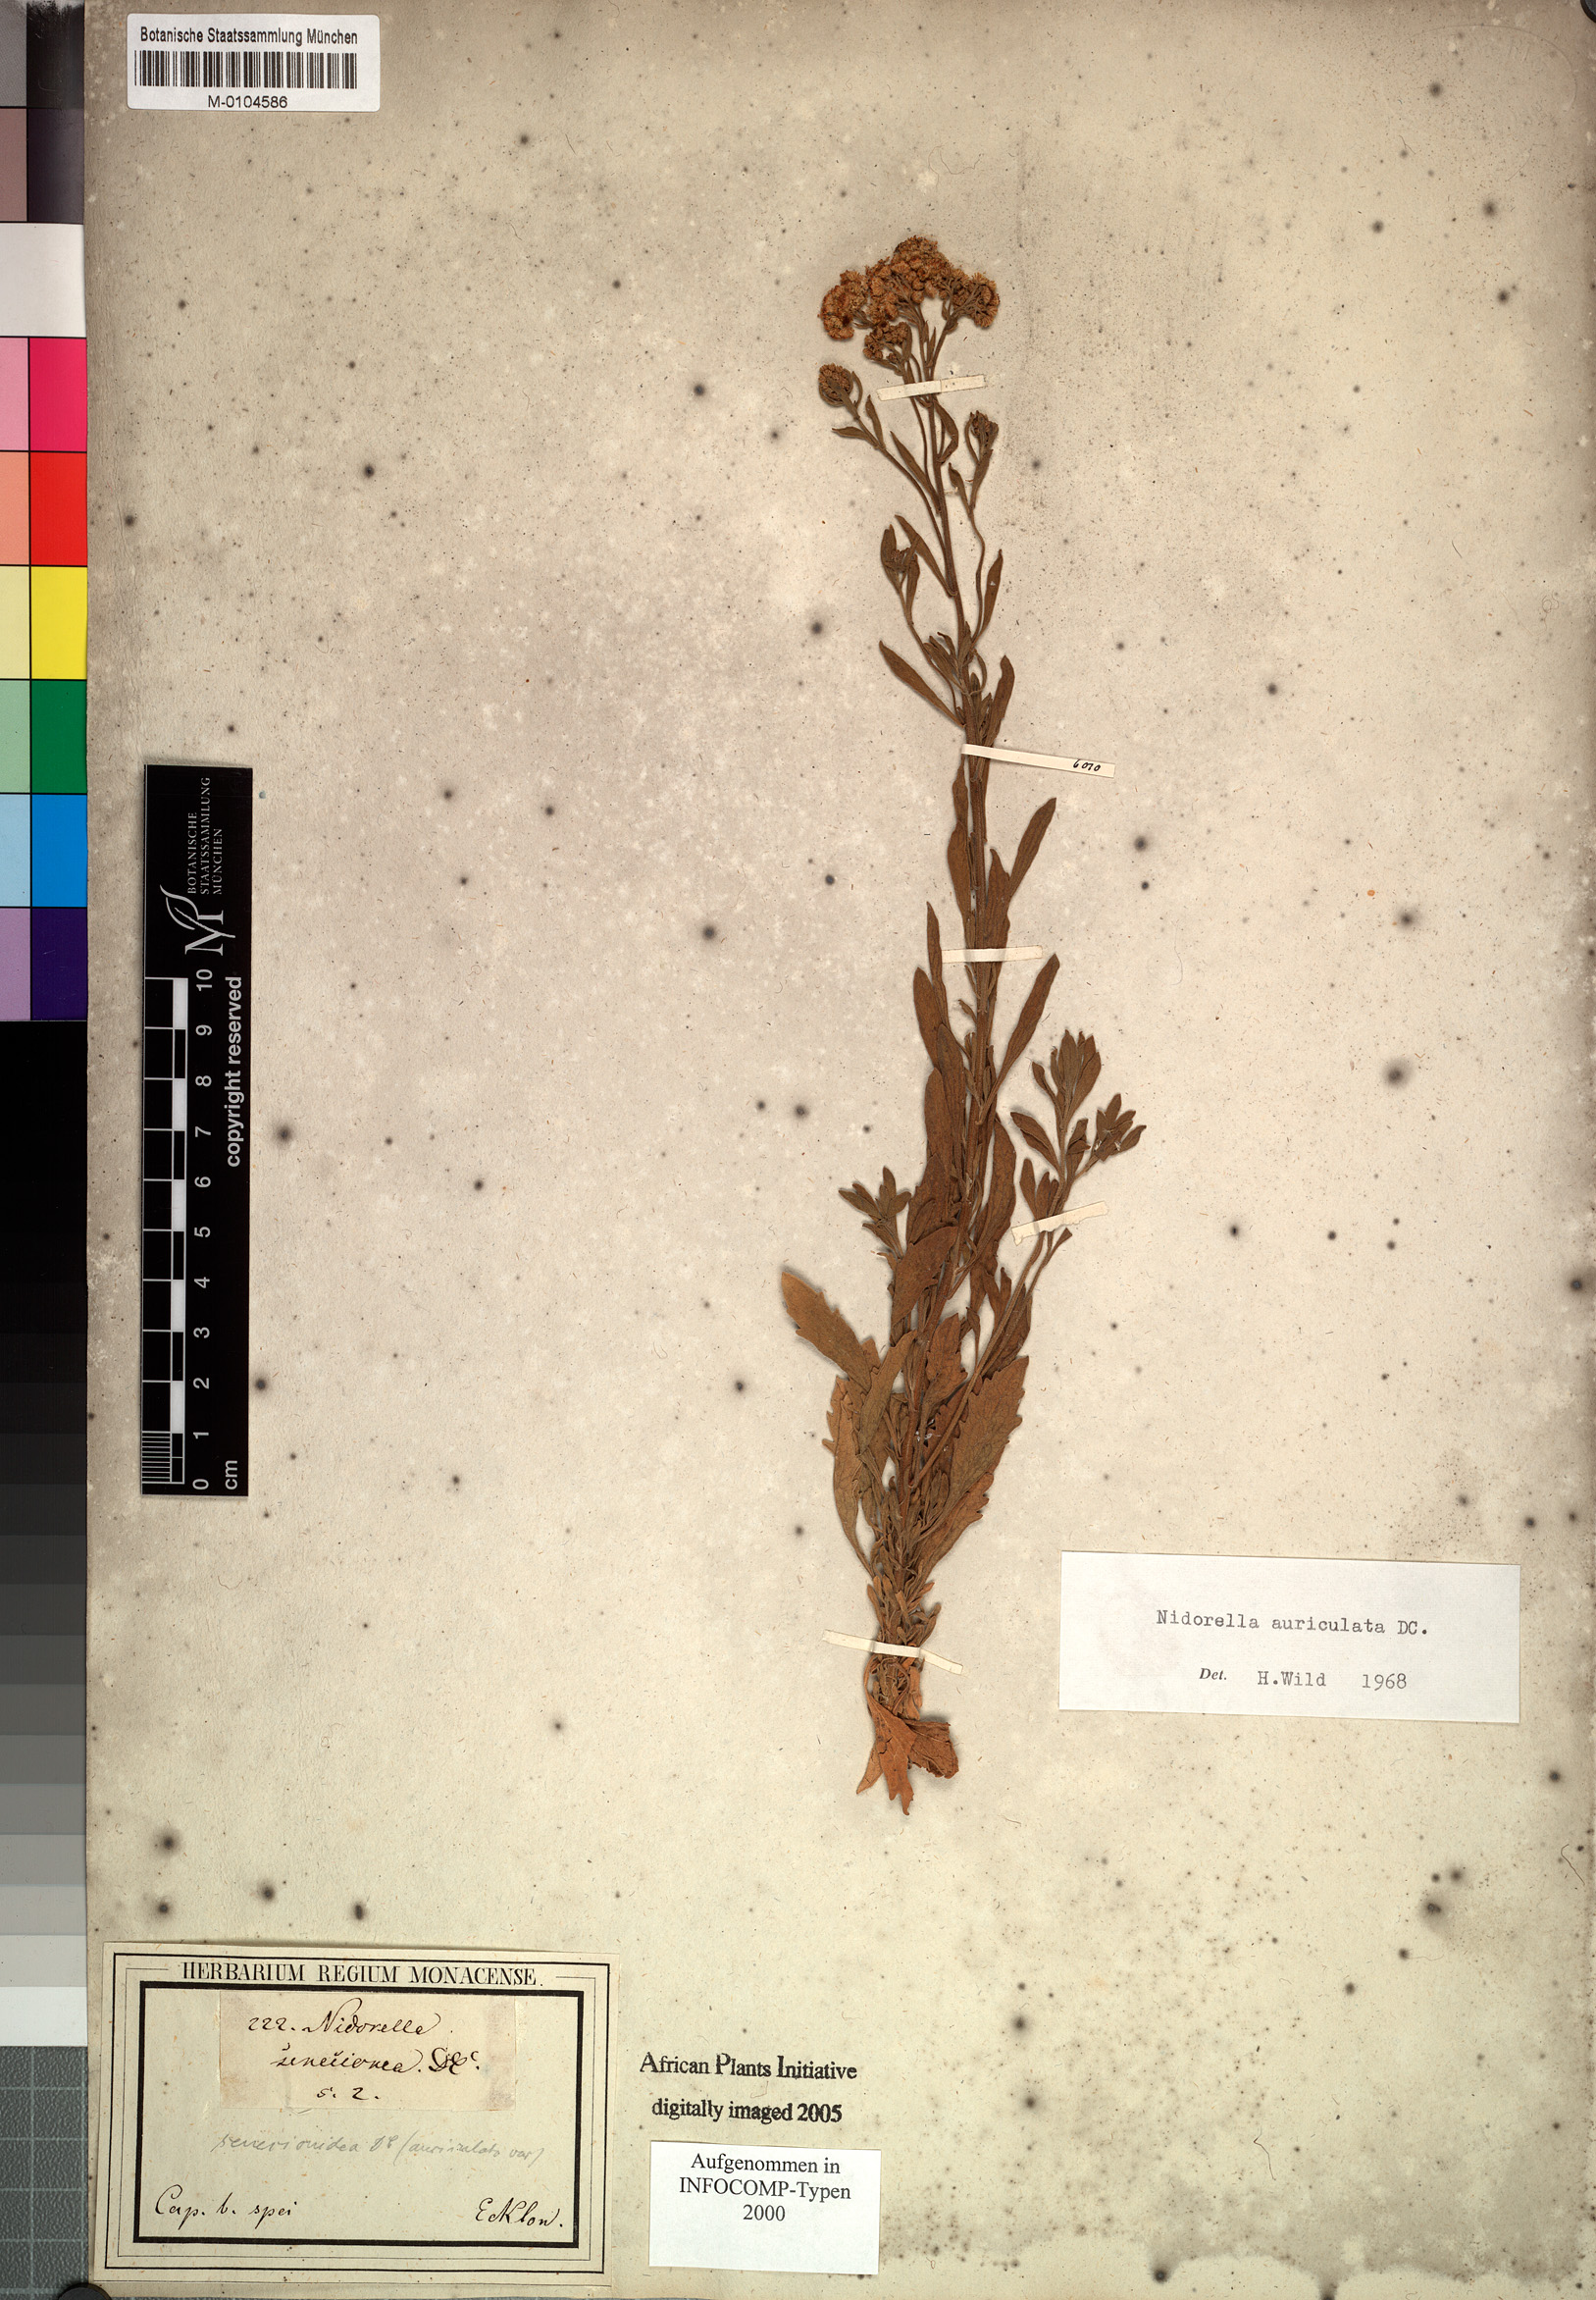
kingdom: Plantae
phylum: Tracheophyta
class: Magnoliopsida
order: Asterales
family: Asteraceae
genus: Nidorella
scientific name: Nidorella auriculata
